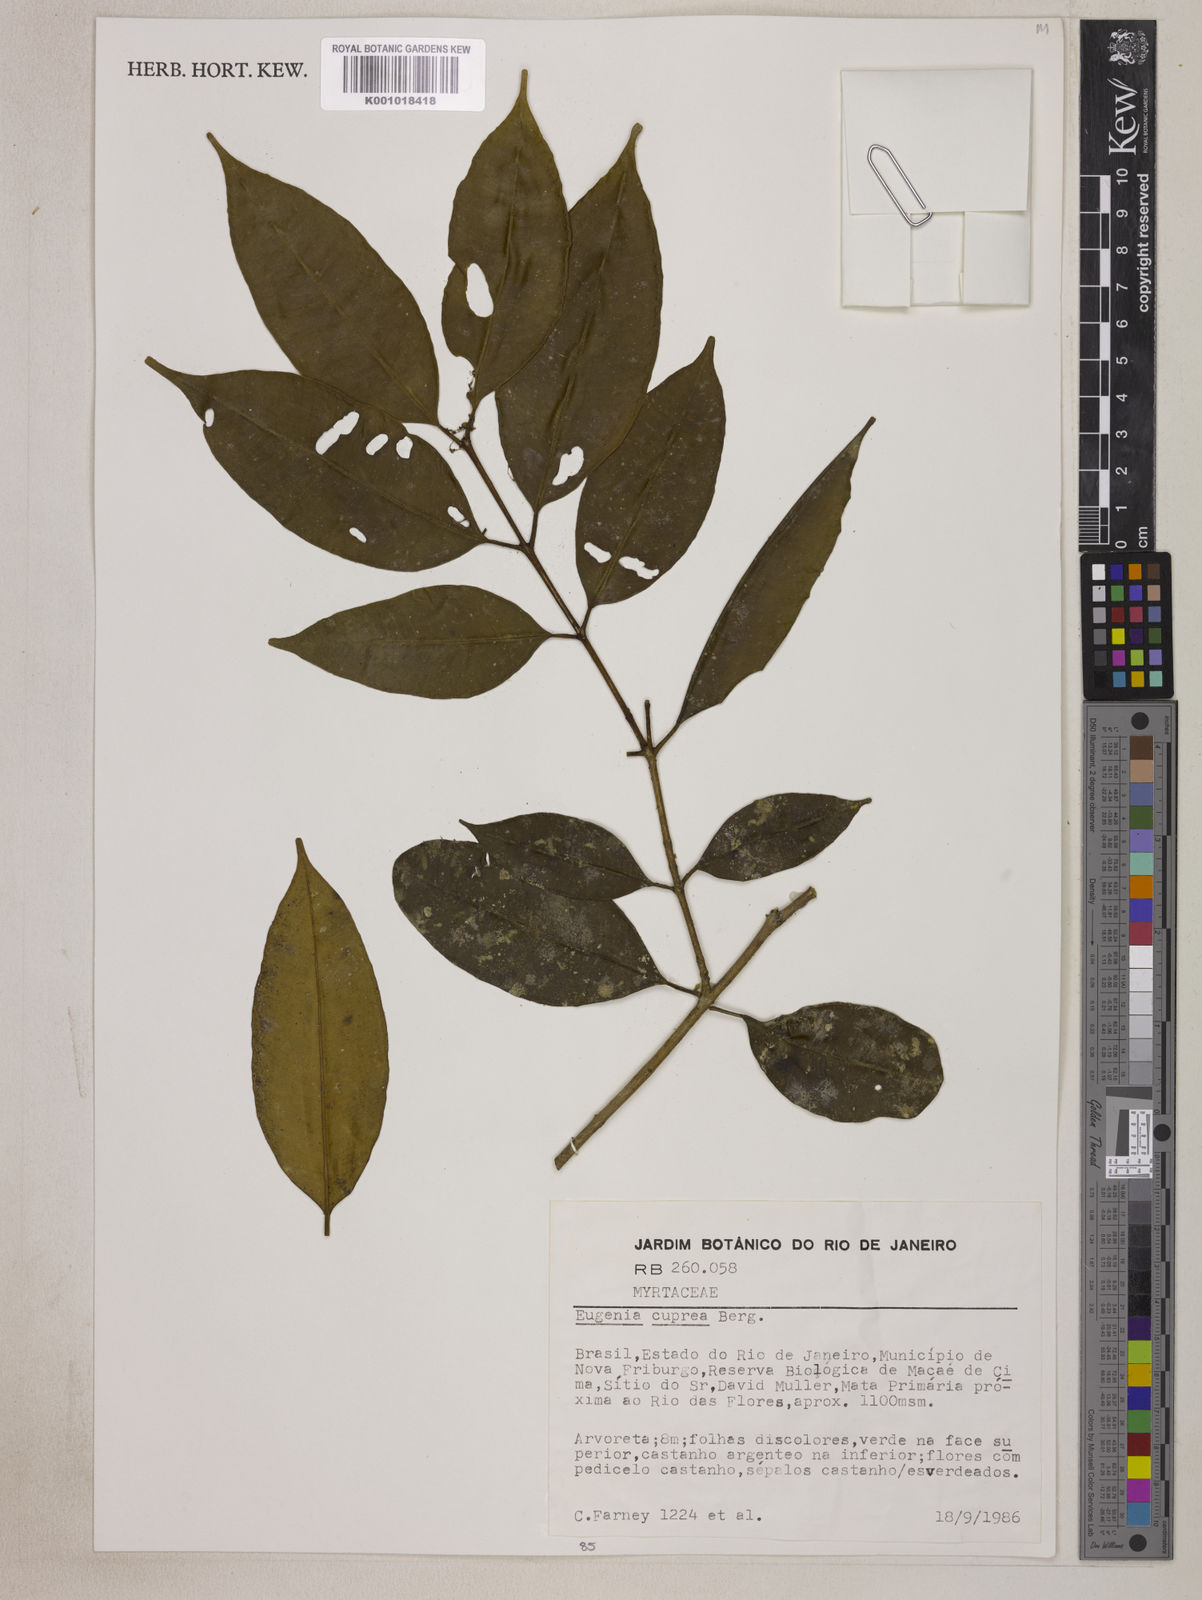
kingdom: Plantae
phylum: Tracheophyta
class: Magnoliopsida
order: Myrtales
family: Myrtaceae
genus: Eugenia
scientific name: Eugenia cuprea
